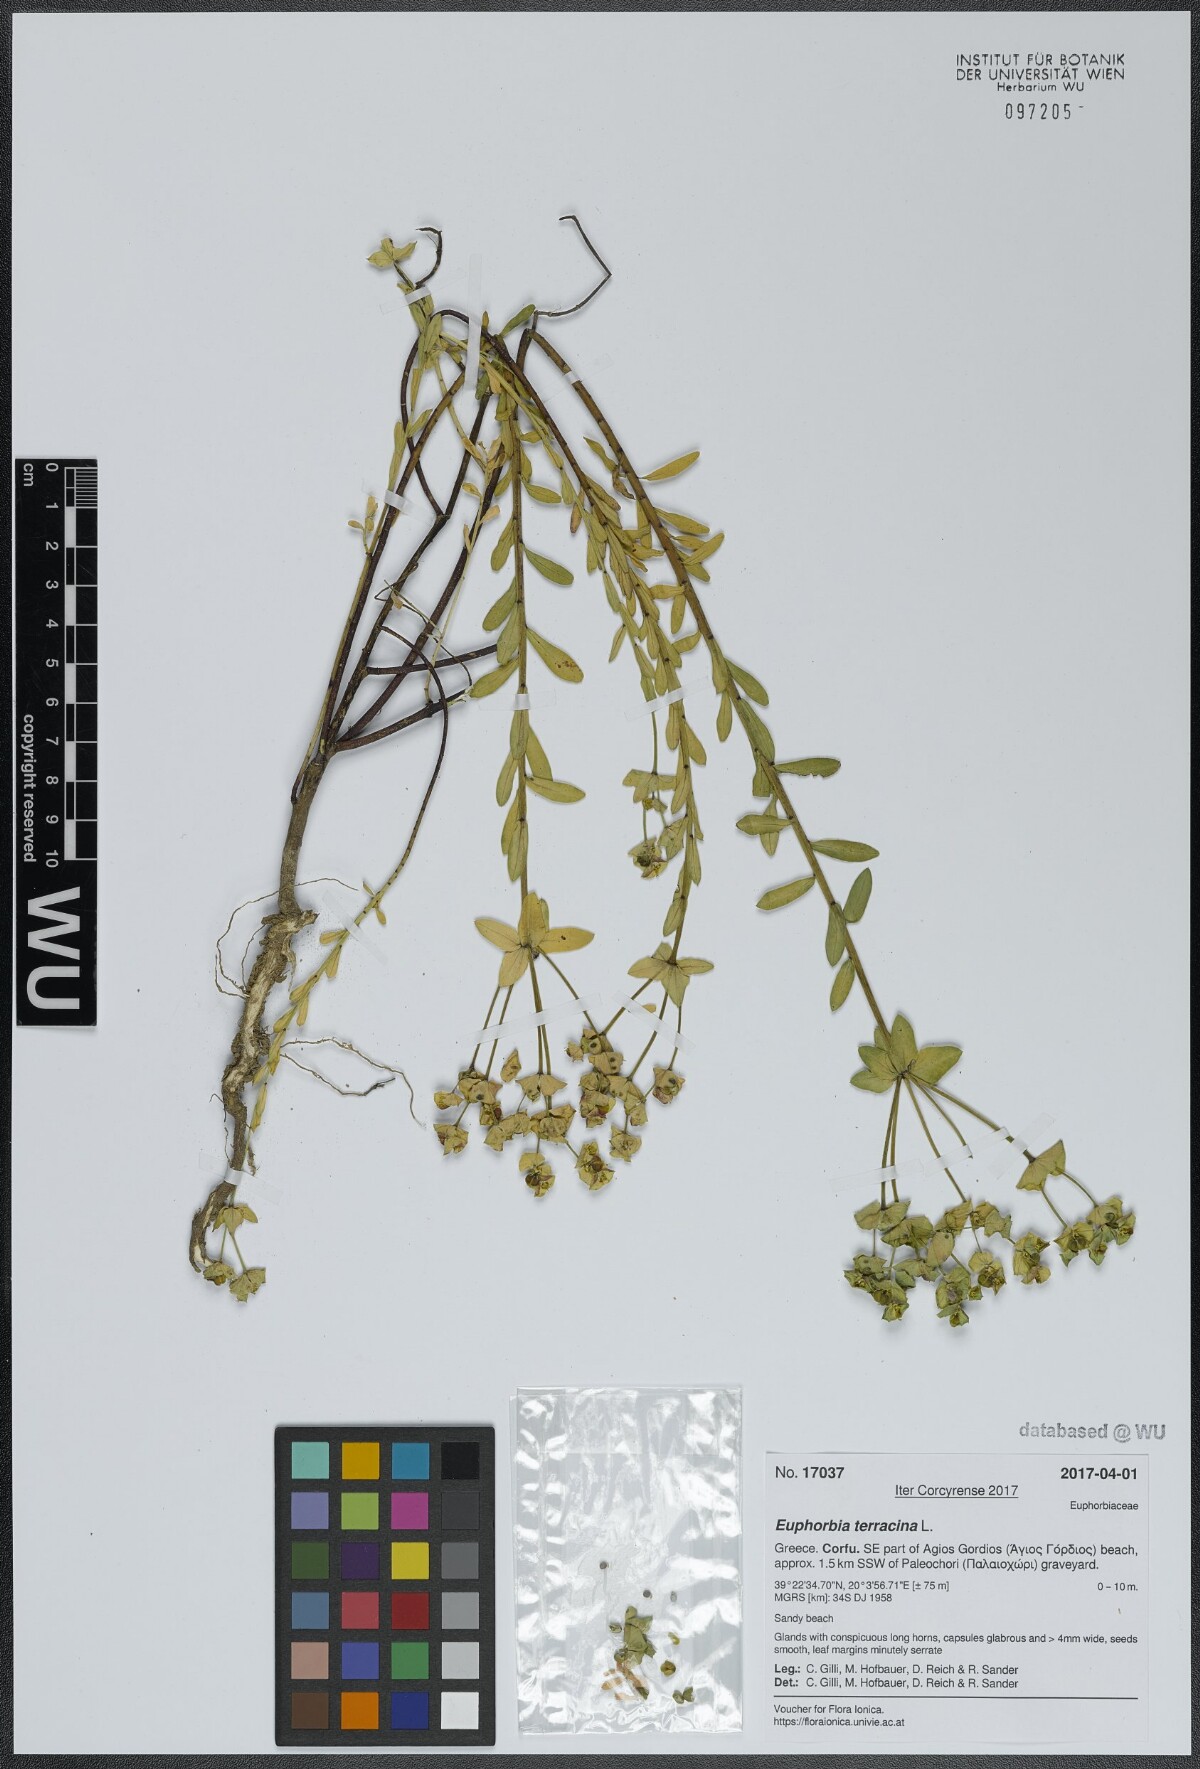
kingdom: Plantae
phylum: Tracheophyta
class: Magnoliopsida
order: Malpighiales
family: Euphorbiaceae
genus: Euphorbia
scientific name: Euphorbia terracina
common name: Geraldton carnation weed
